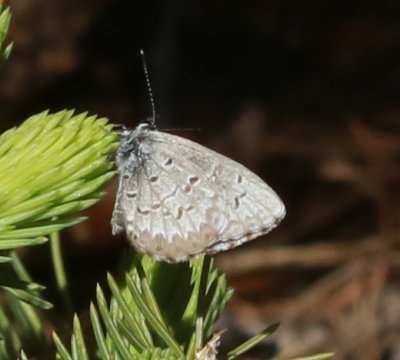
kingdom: Animalia
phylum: Arthropoda
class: Insecta
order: Lepidoptera
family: Lycaenidae
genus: Celastrina
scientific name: Celastrina lucia
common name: Northern Spring Azure
